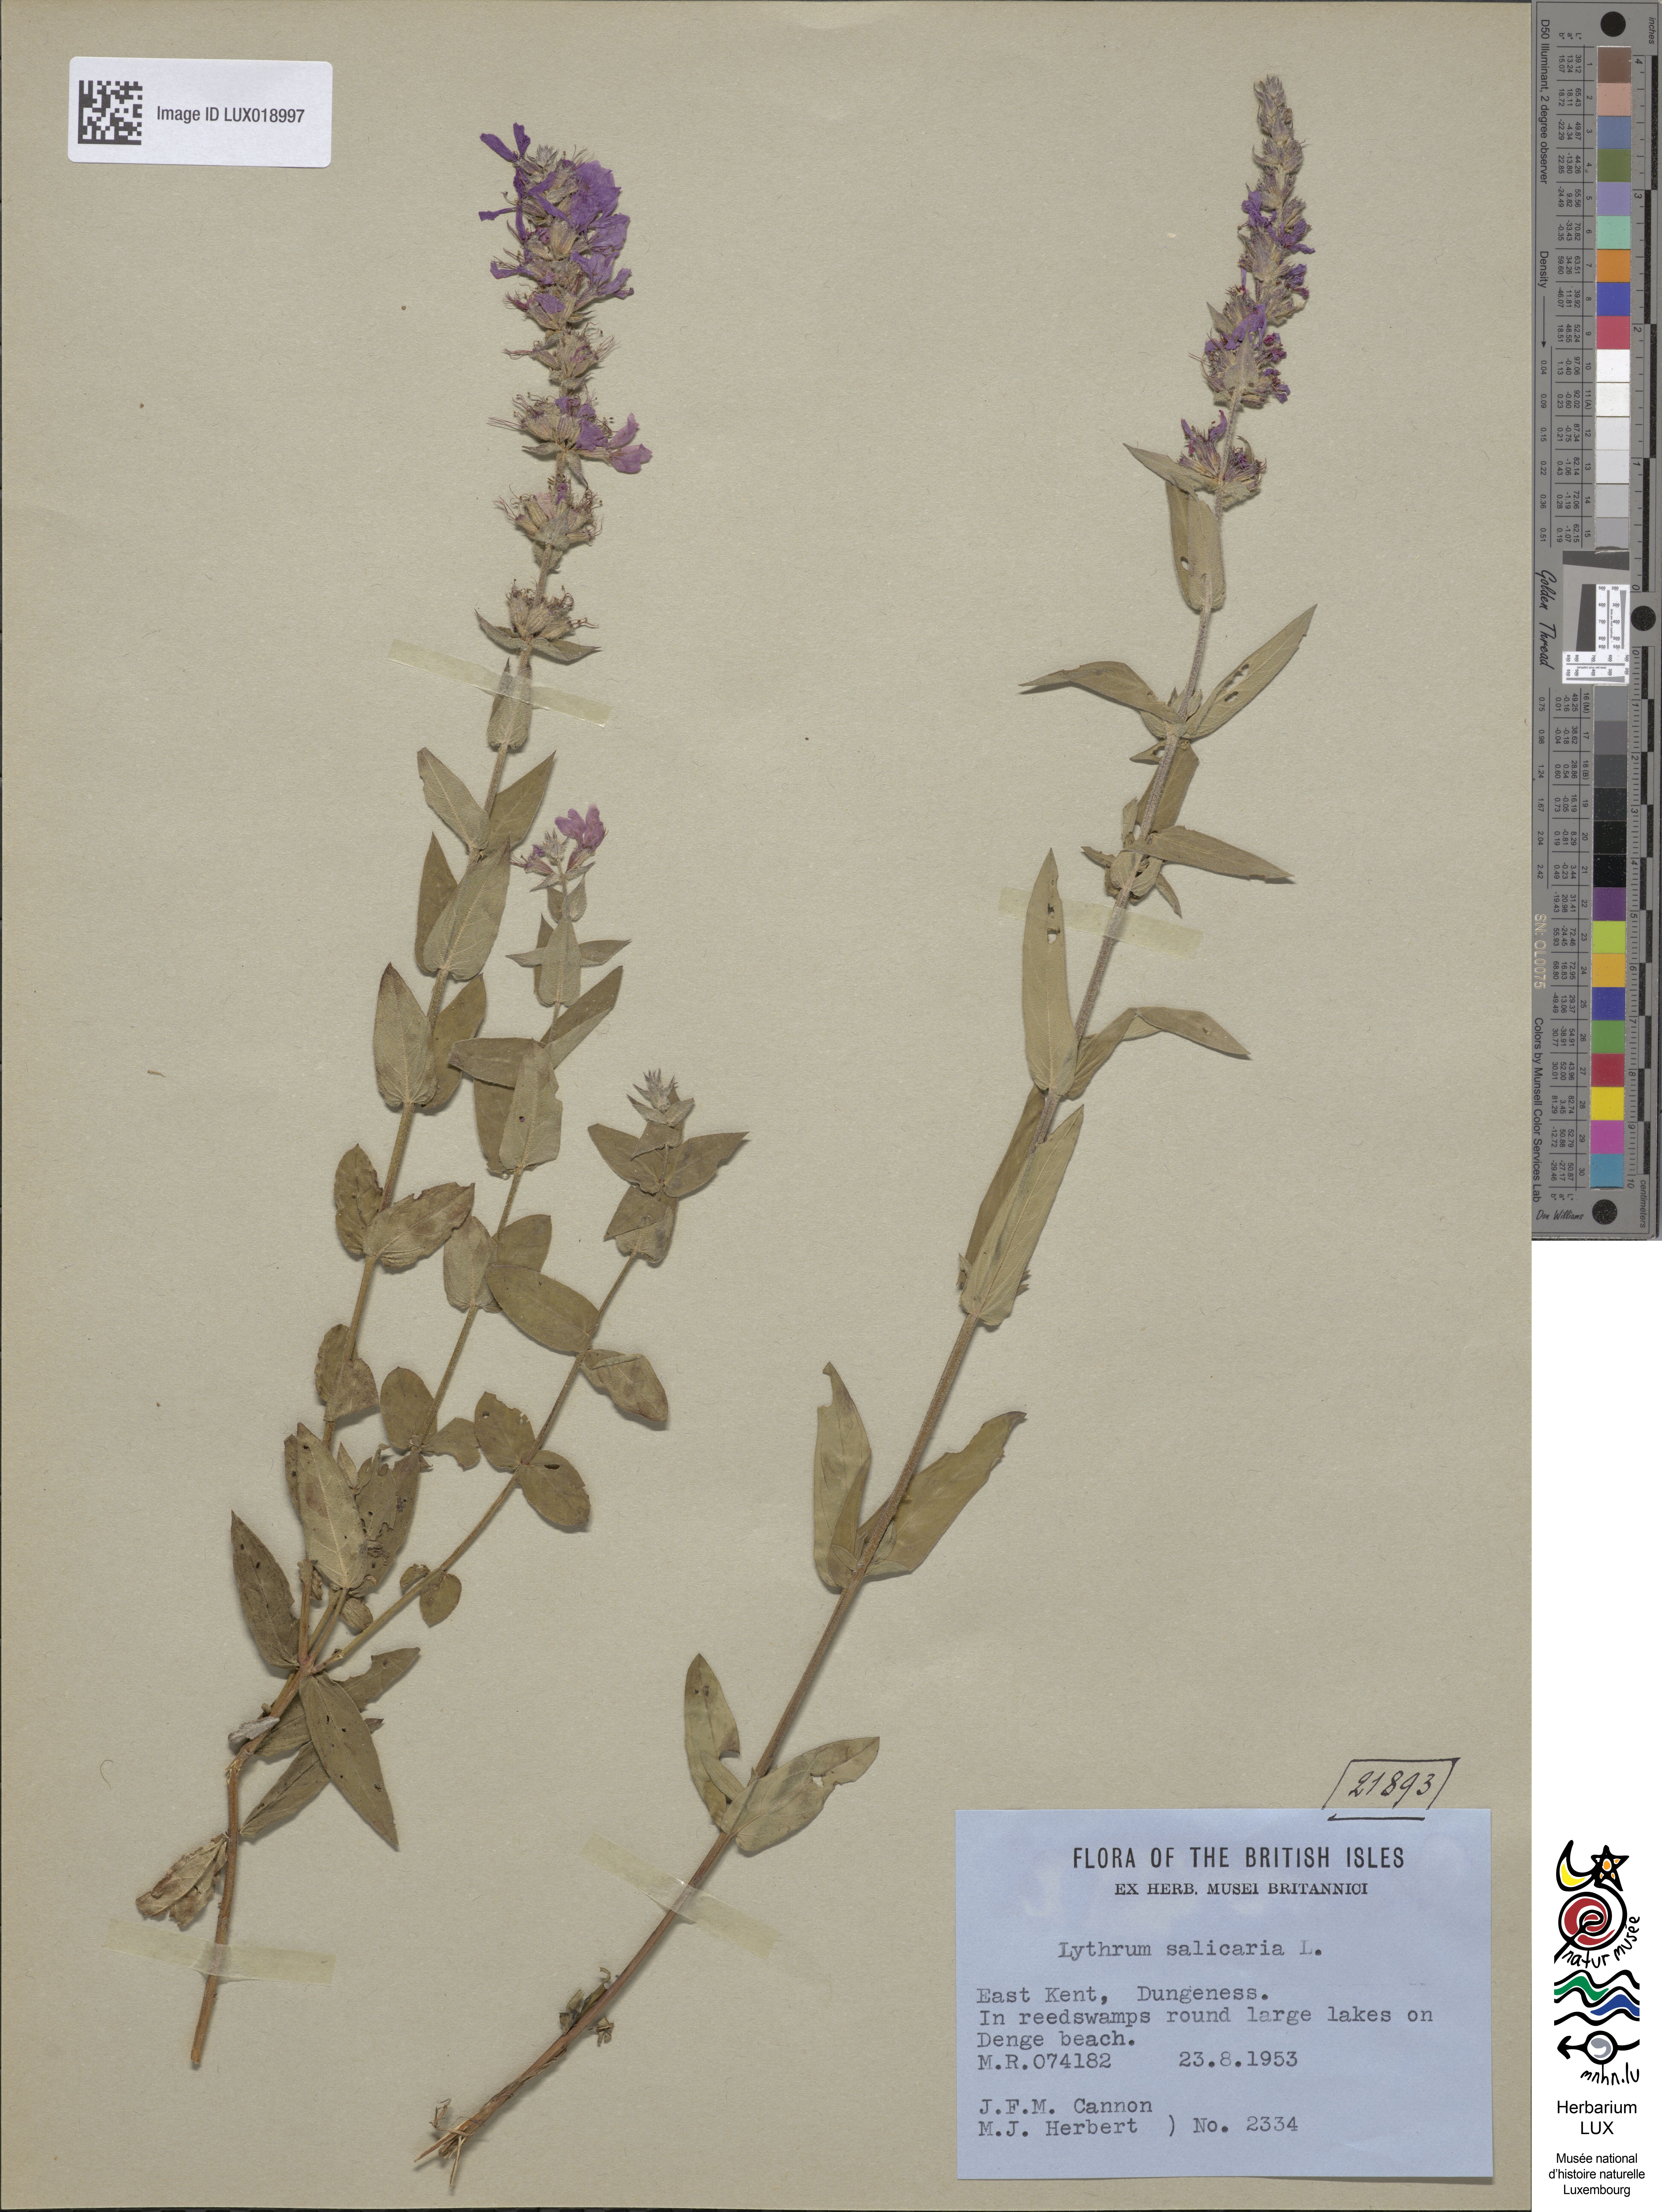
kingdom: Plantae
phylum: Tracheophyta
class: Magnoliopsida
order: Myrtales
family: Lythraceae
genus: Lythrum
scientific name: Lythrum salicaria
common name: Purple loosestrife
